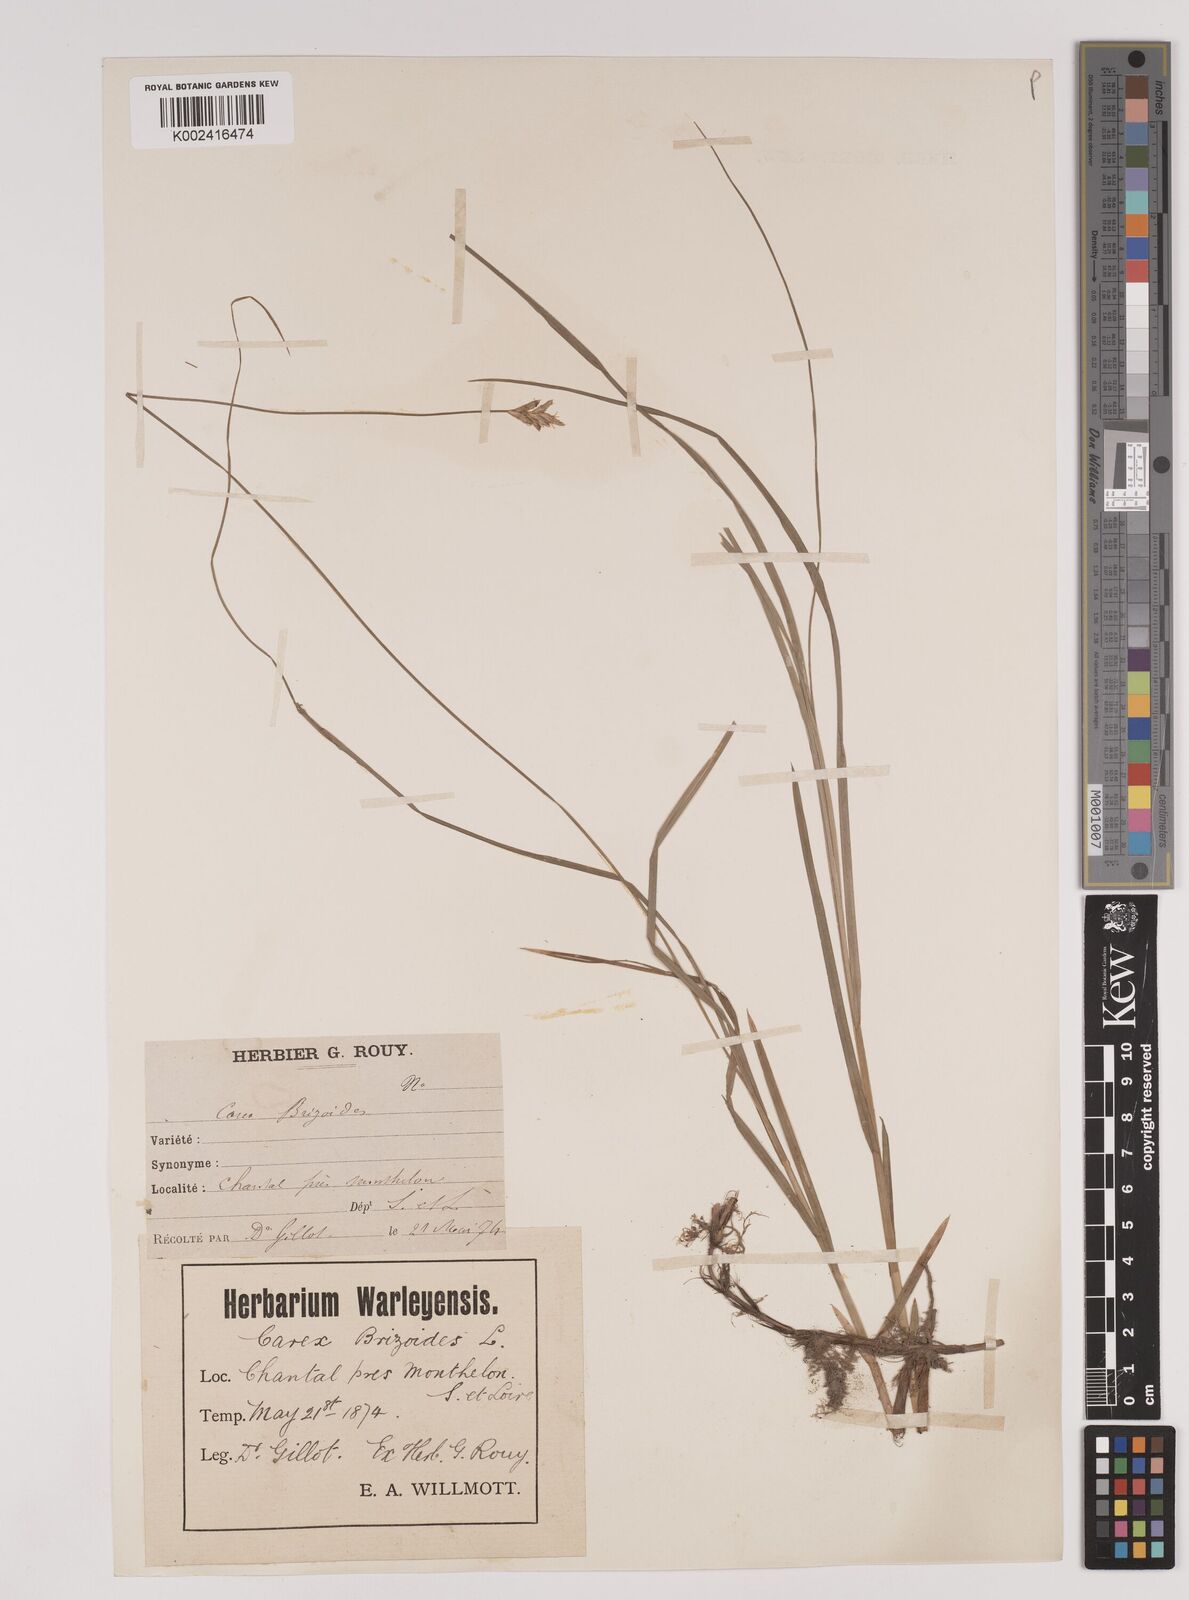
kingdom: Plantae
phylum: Tracheophyta
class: Liliopsida
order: Poales
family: Cyperaceae
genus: Carex
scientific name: Carex brizoides
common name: Quaking-grass sedge
